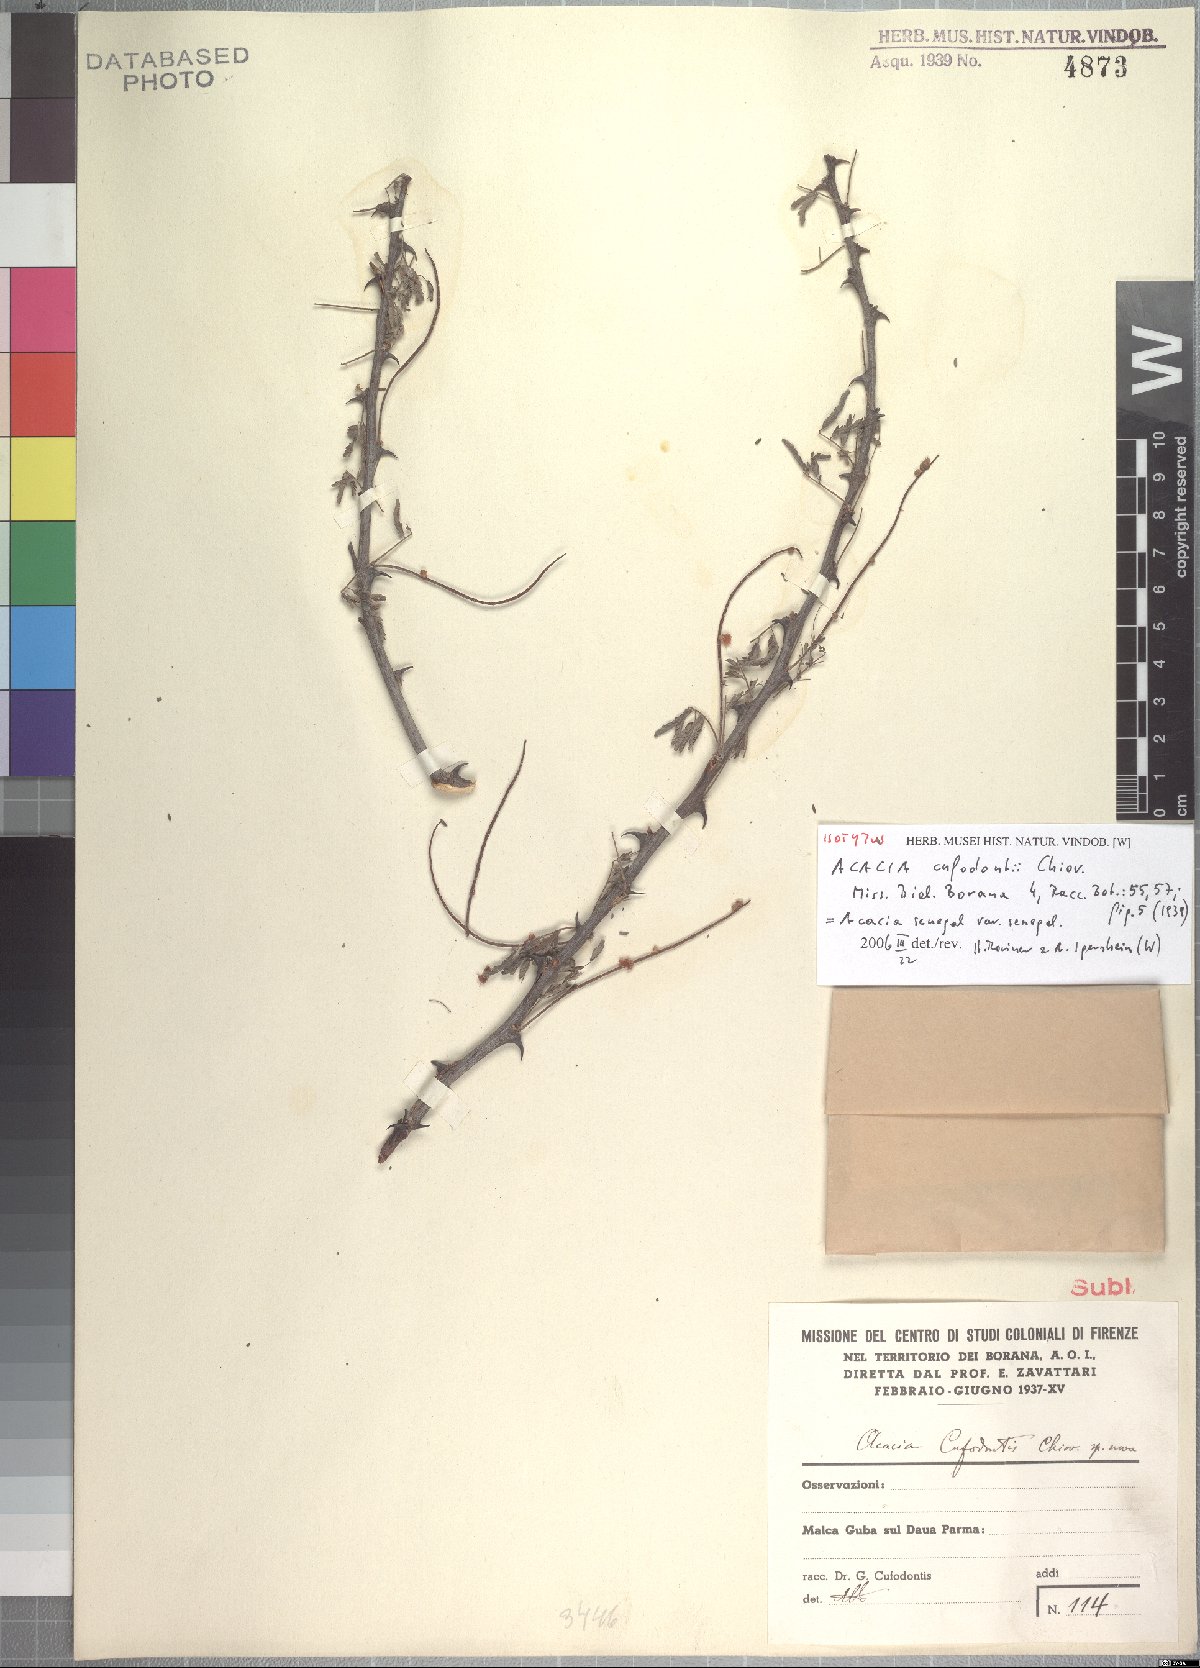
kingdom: Plantae
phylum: Tracheophyta
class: Magnoliopsida
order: Fabales
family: Fabaceae
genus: Senegalia
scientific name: Senegalia senegal
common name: Senegal-gum
